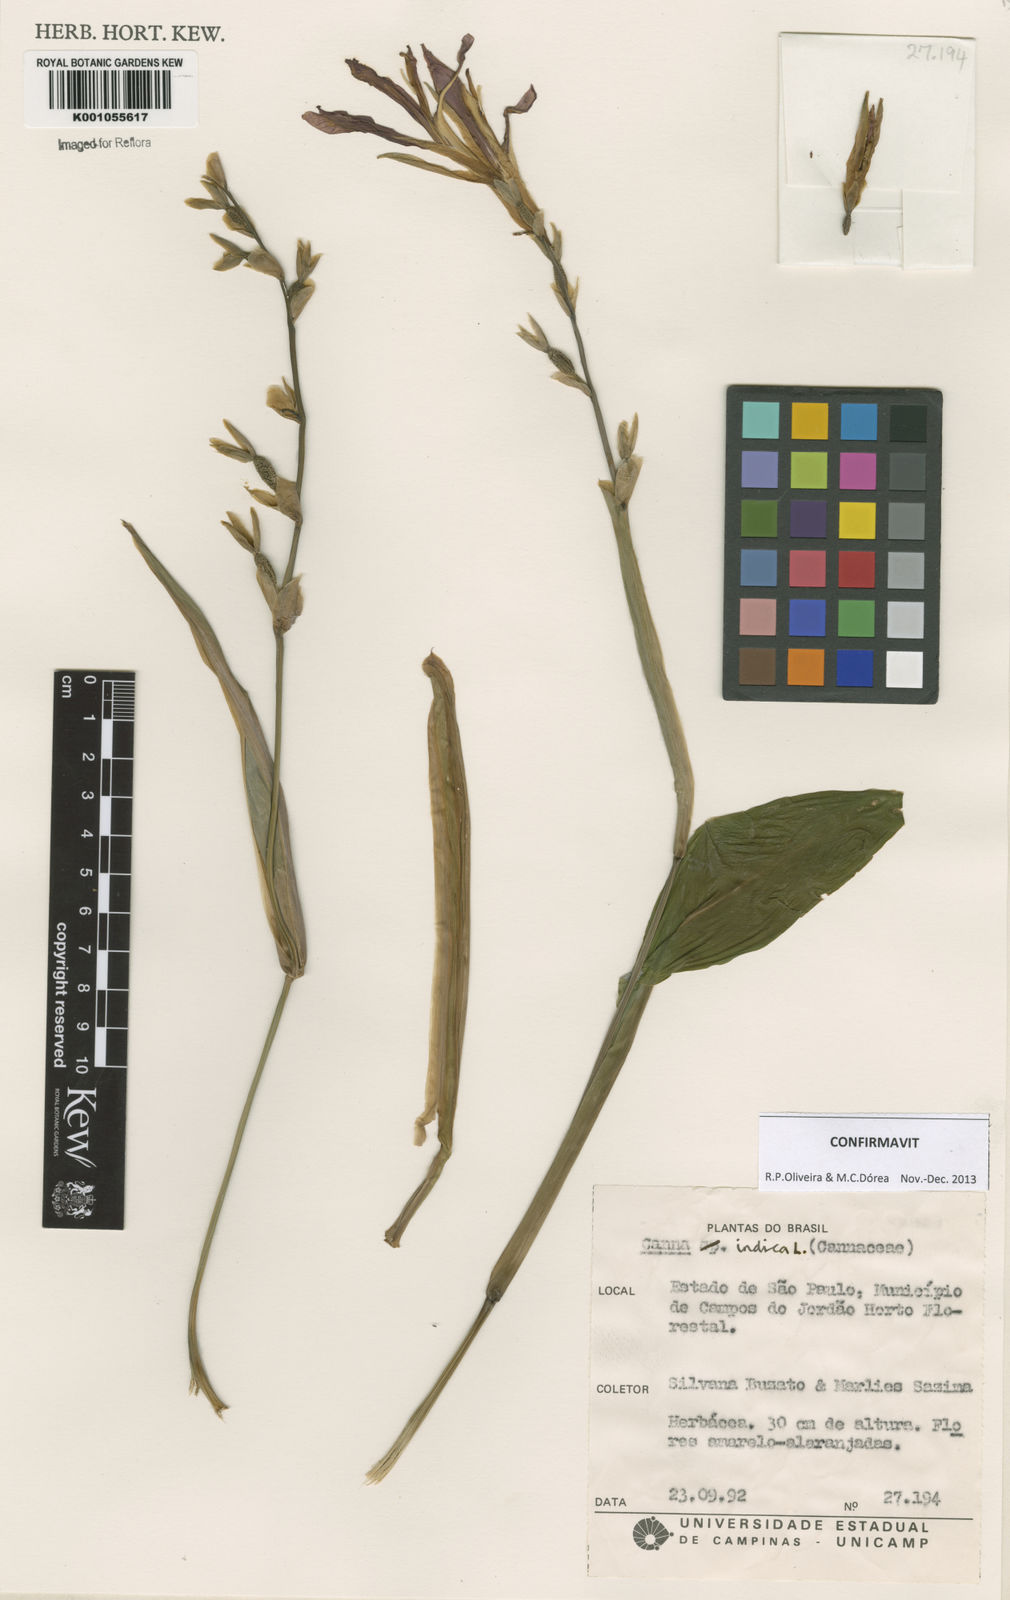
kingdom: Plantae
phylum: Tracheophyta
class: Liliopsida
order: Zingiberales
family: Cannaceae
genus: Canna
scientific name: Canna indica
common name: Indian shot
